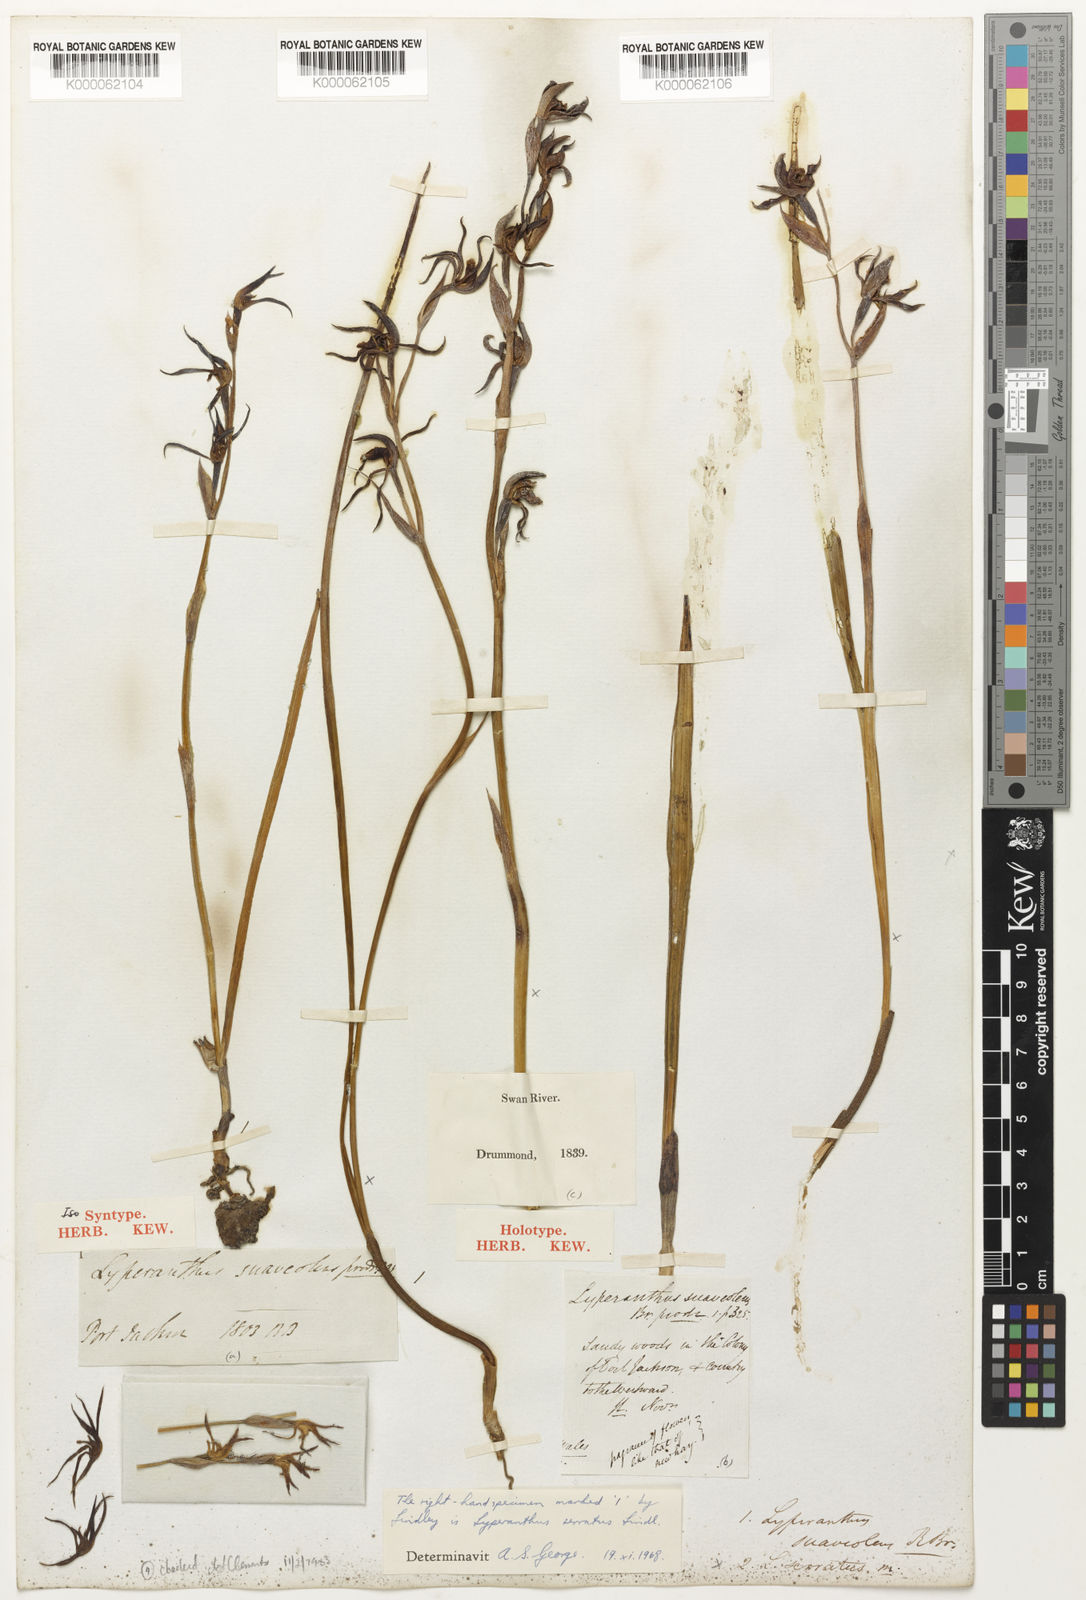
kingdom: Plantae
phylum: Tracheophyta
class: Liliopsida
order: Asparagales
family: Orchidaceae
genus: Lyperanthus
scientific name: Lyperanthus serratus
